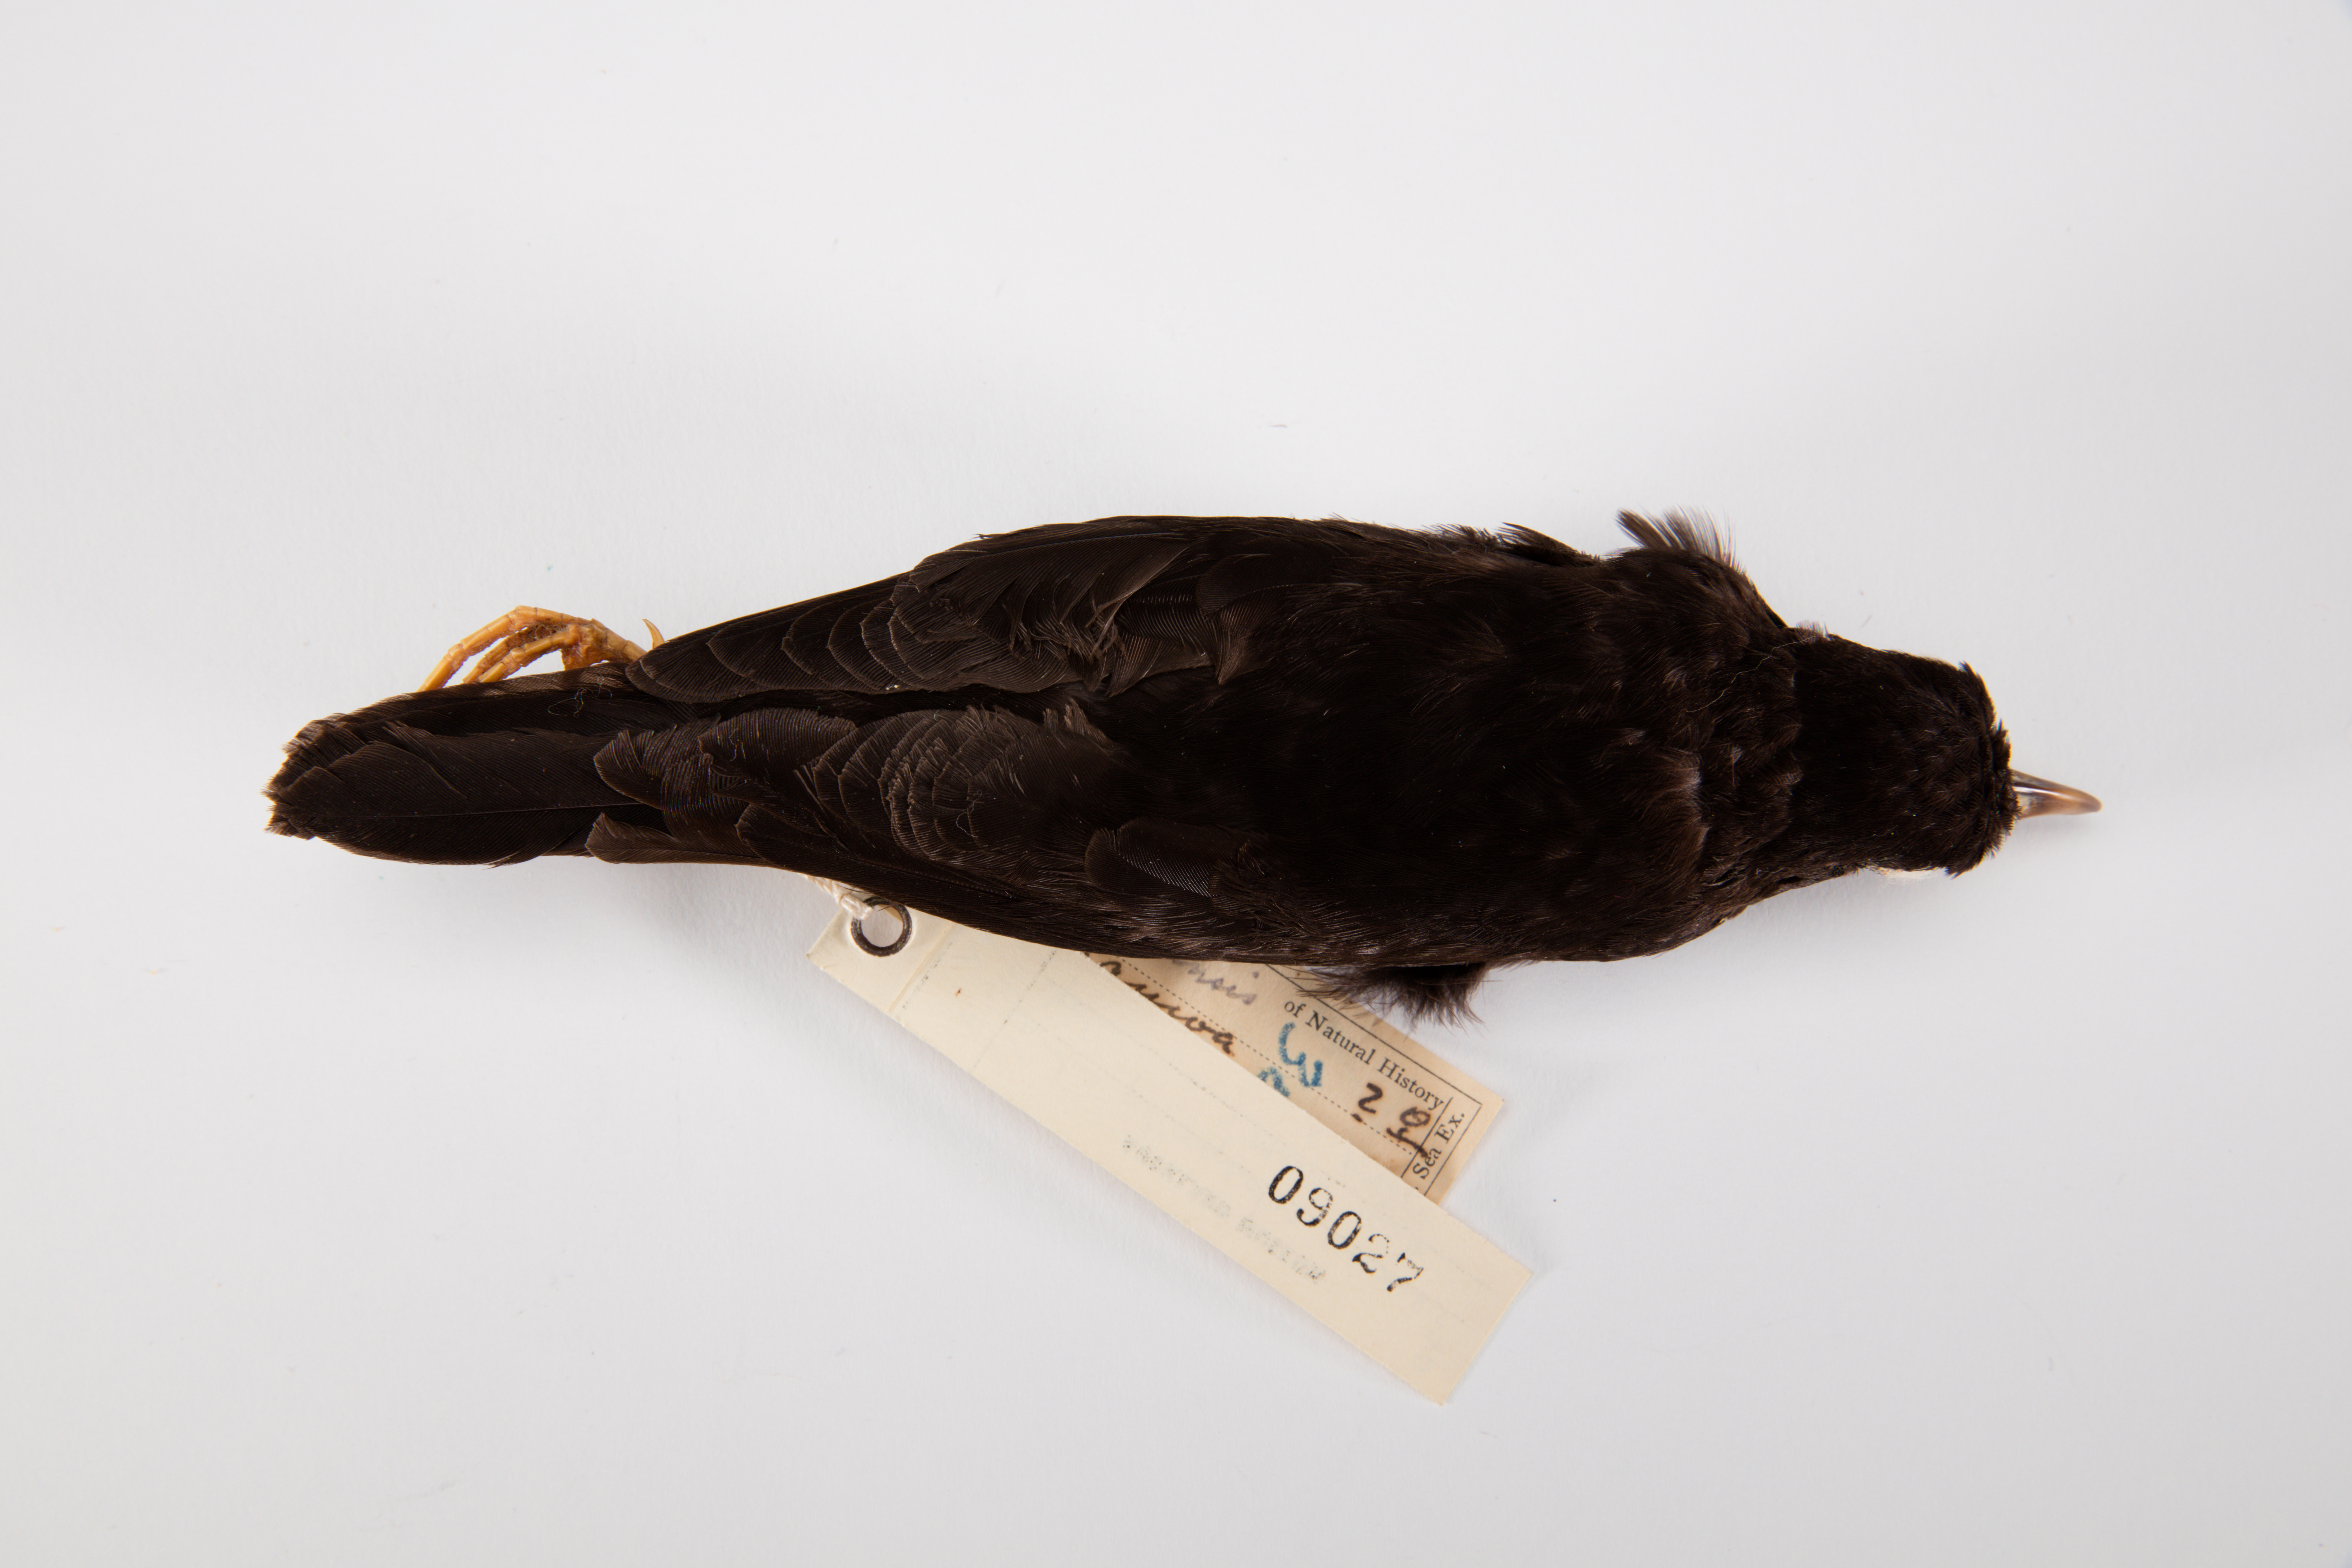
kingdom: Animalia
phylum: Chordata
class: Aves
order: Passeriformes
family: Turdidae
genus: Turdus
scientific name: Turdus poliocephalus
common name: Island thrush
